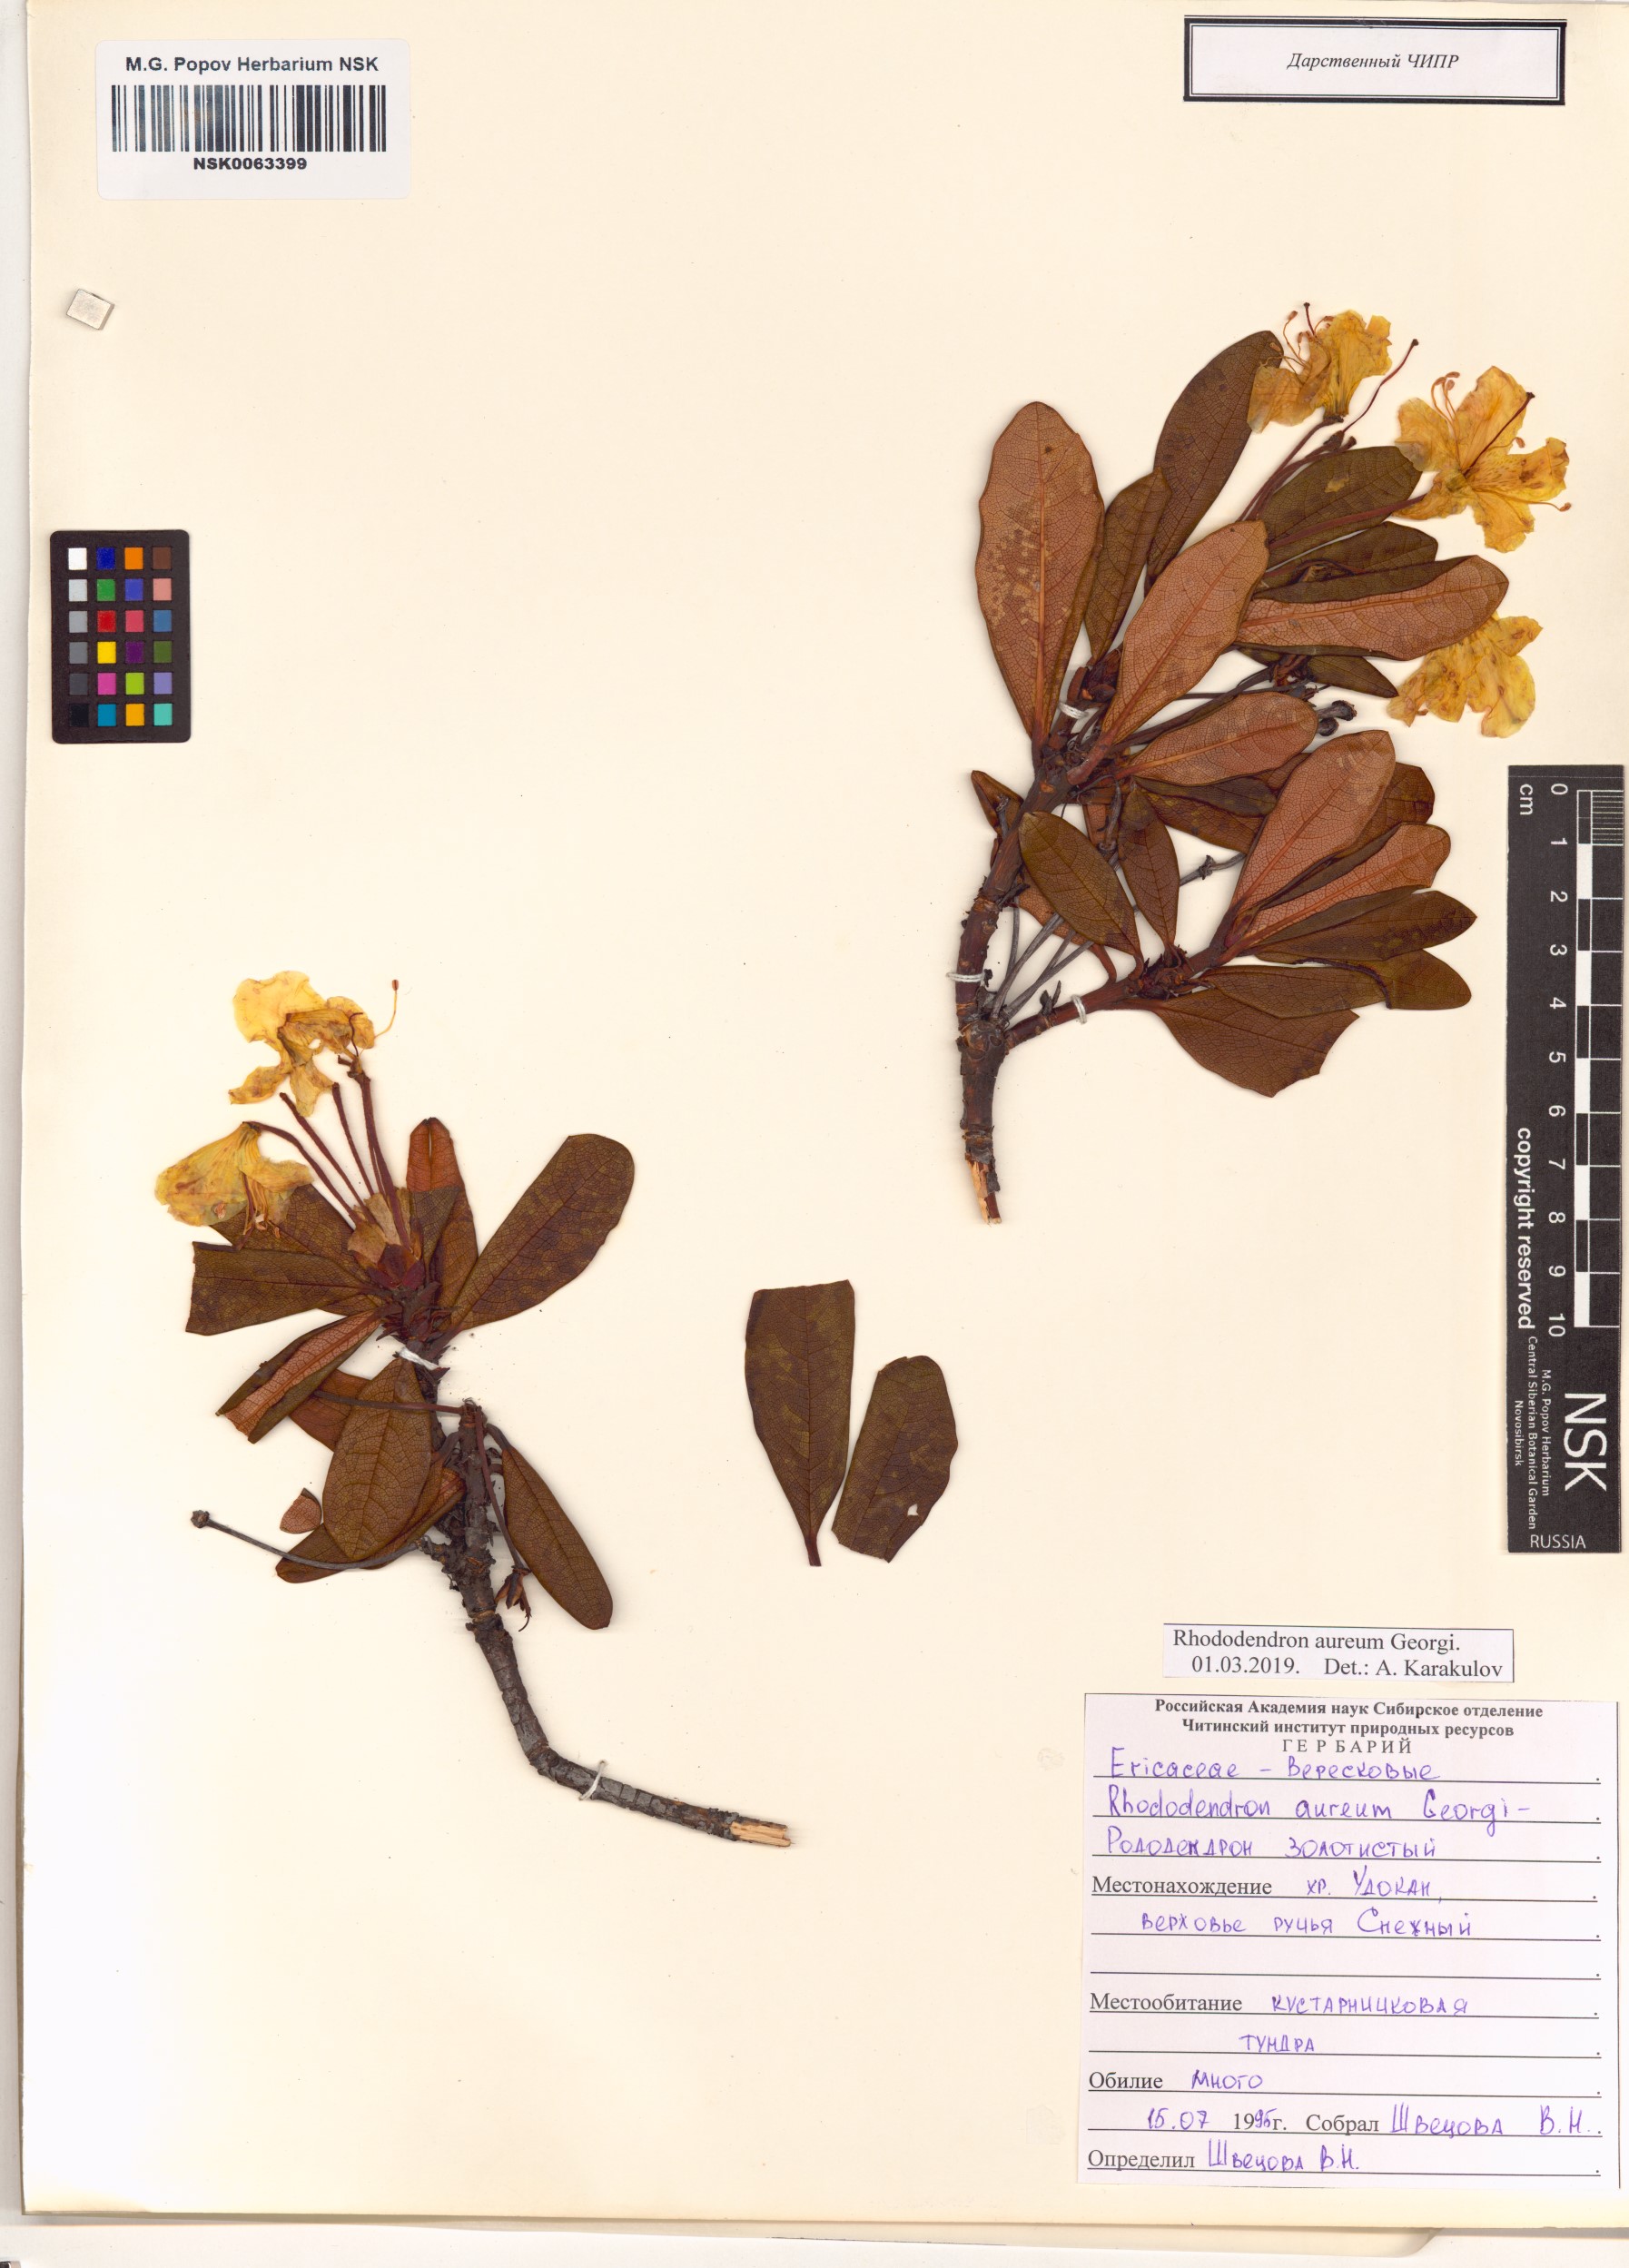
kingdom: Plantae
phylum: Tracheophyta
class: Magnoliopsida
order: Ericales
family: Ericaceae
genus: Rhododendron
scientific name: Rhododendron aureum
